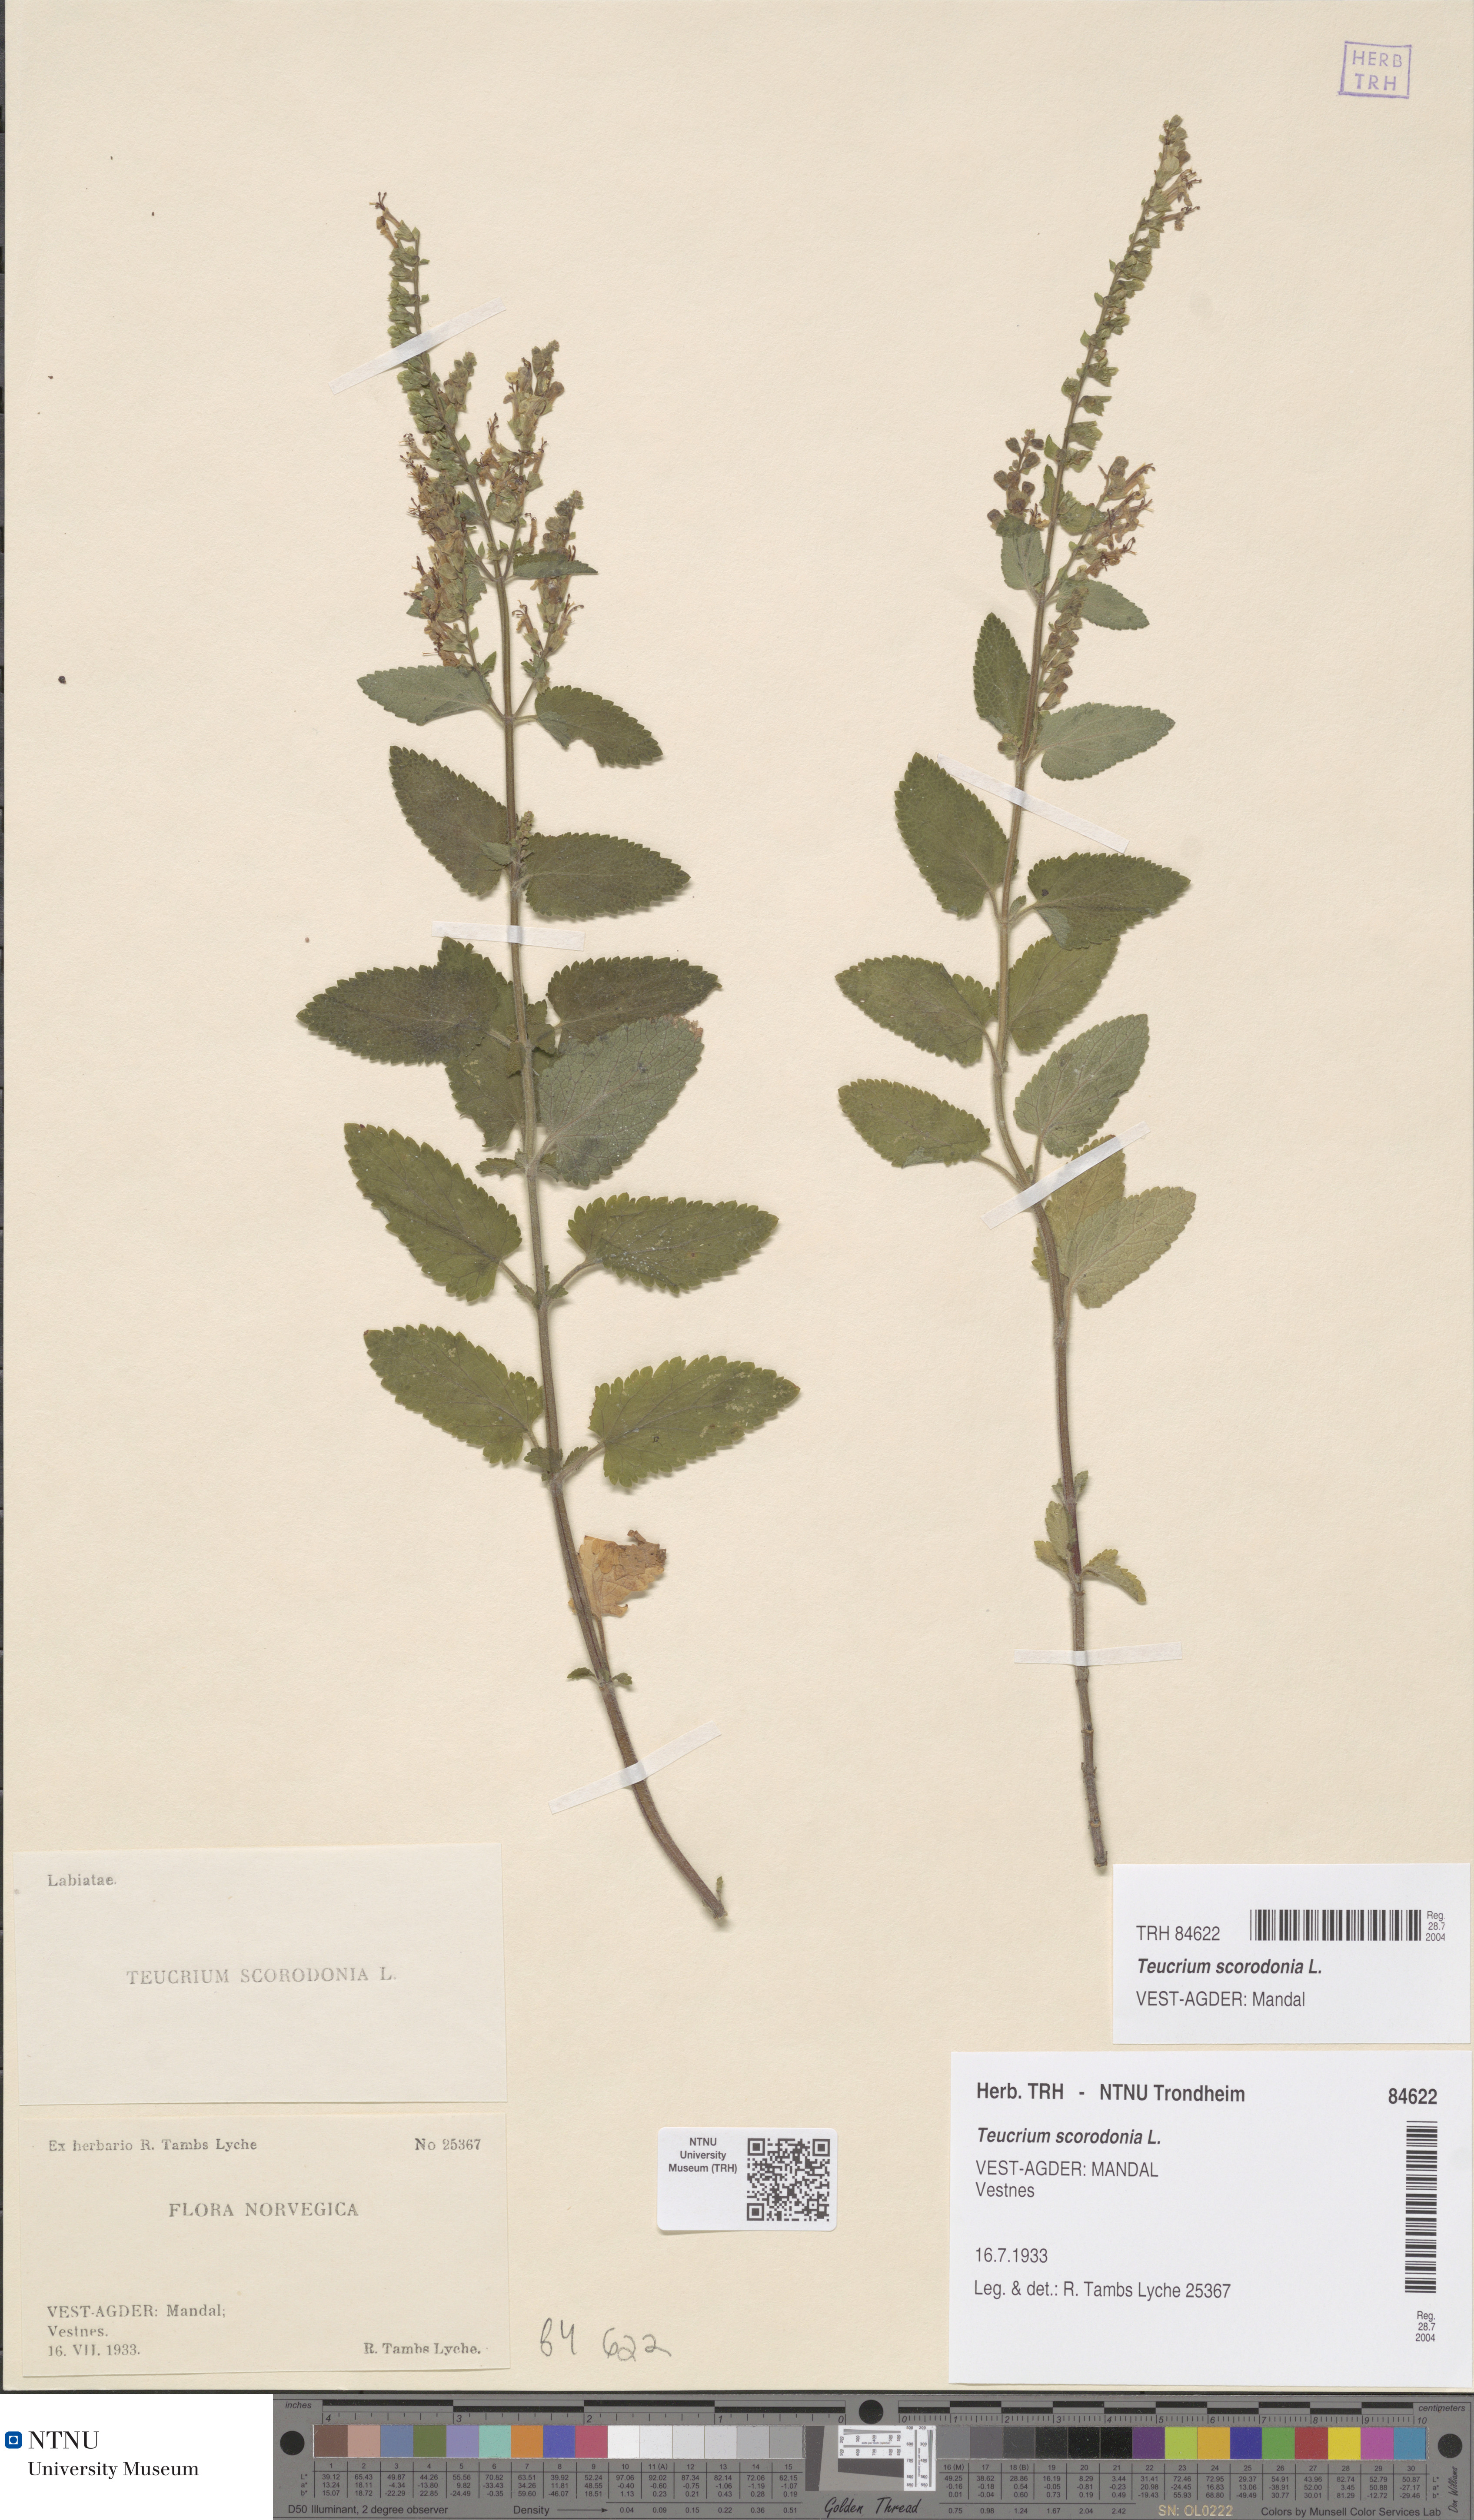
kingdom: Plantae
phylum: Tracheophyta
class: Magnoliopsida
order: Lamiales
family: Lamiaceae
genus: Teucrium
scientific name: Teucrium scorodonia
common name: Woodland germander
